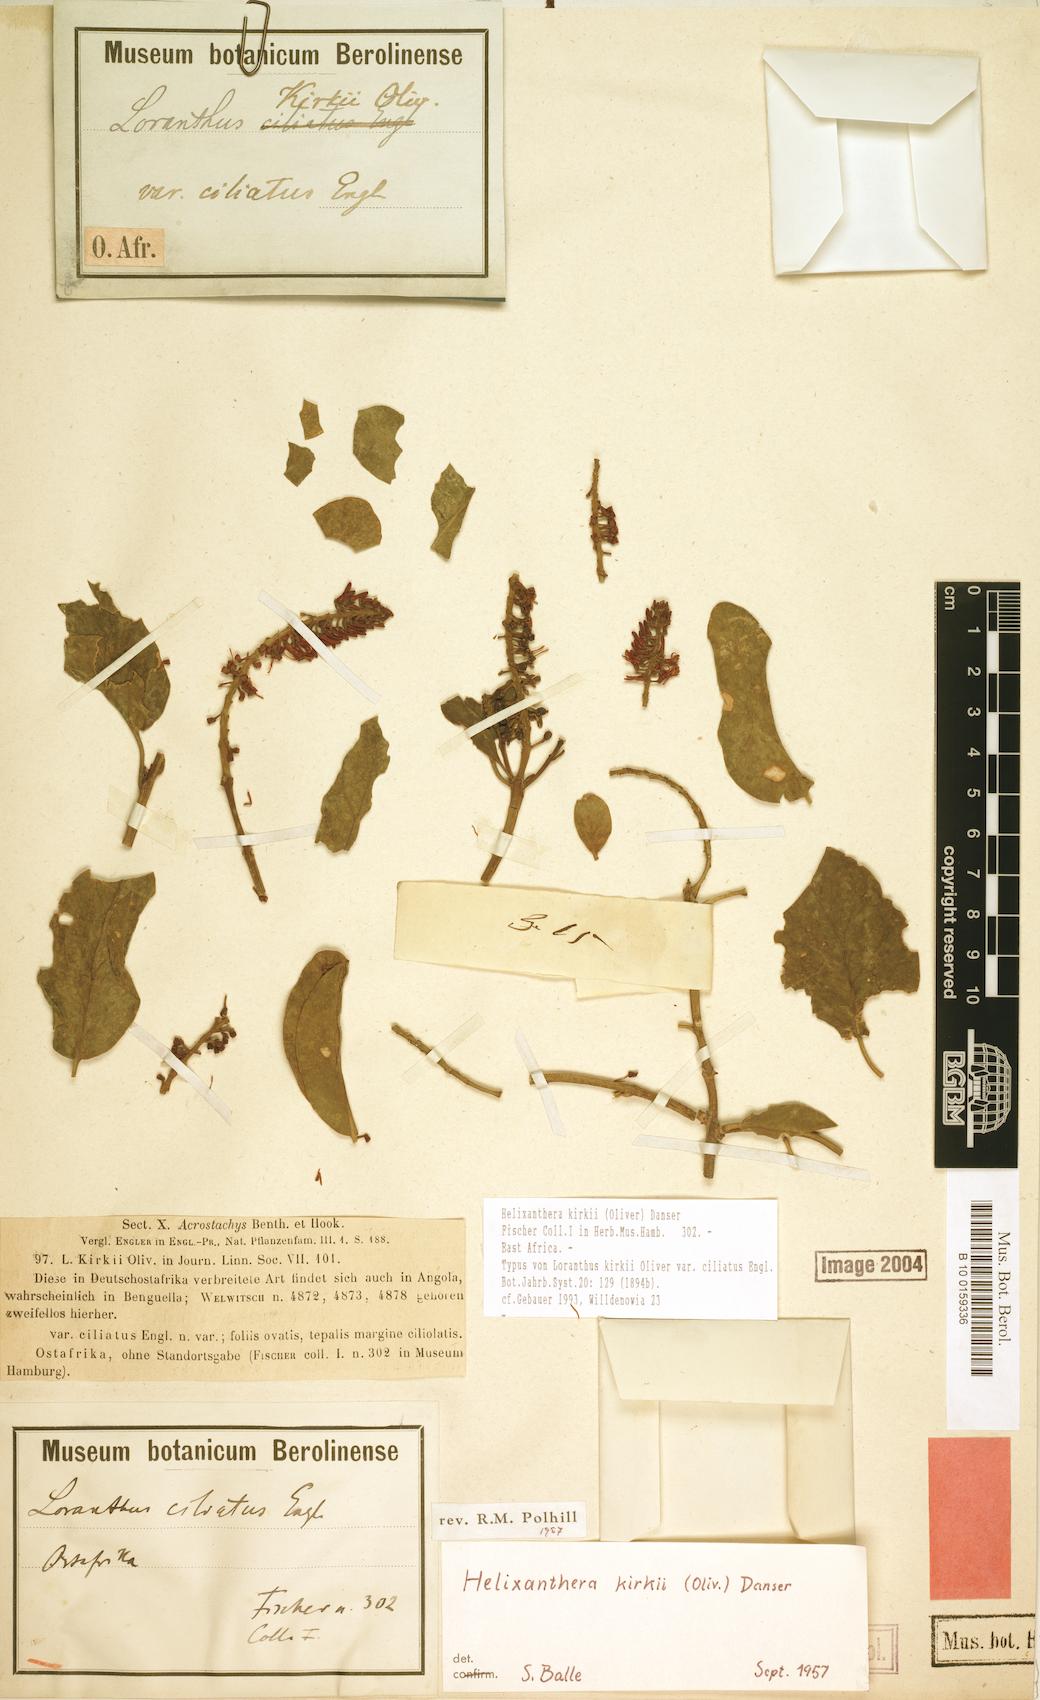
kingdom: Plantae
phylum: Tracheophyta
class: Magnoliopsida
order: Santalales
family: Loranthaceae
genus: Helixanthera
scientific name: Helixanthera kirkii
